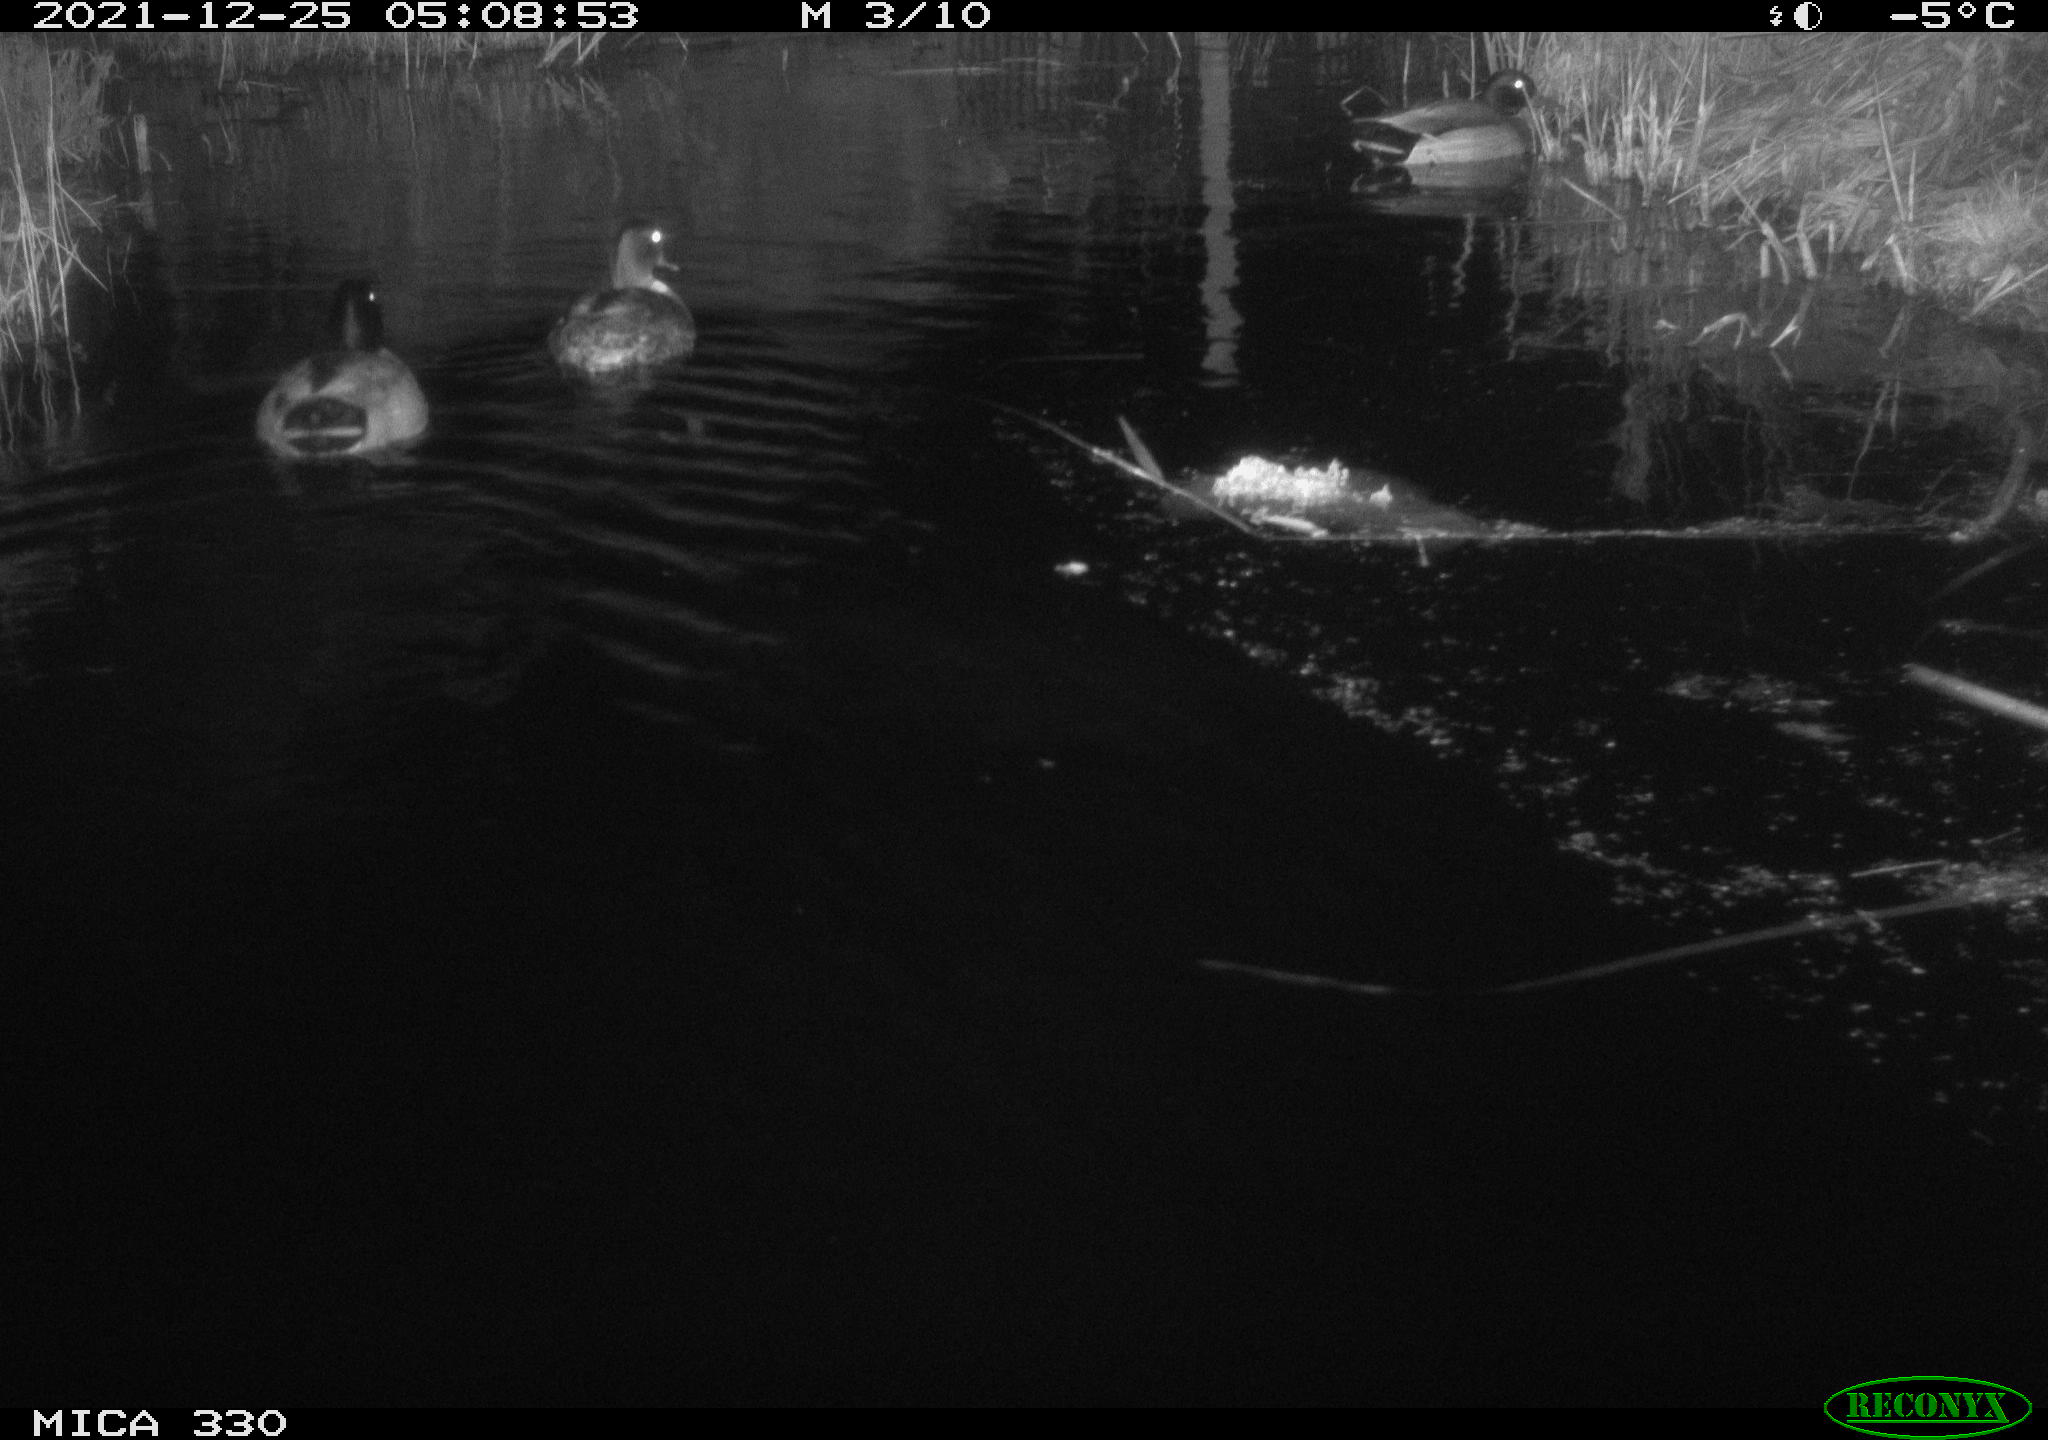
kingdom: Animalia
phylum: Chordata
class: Aves
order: Anseriformes
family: Anatidae
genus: Anas
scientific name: Anas platyrhynchos
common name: Mallard
